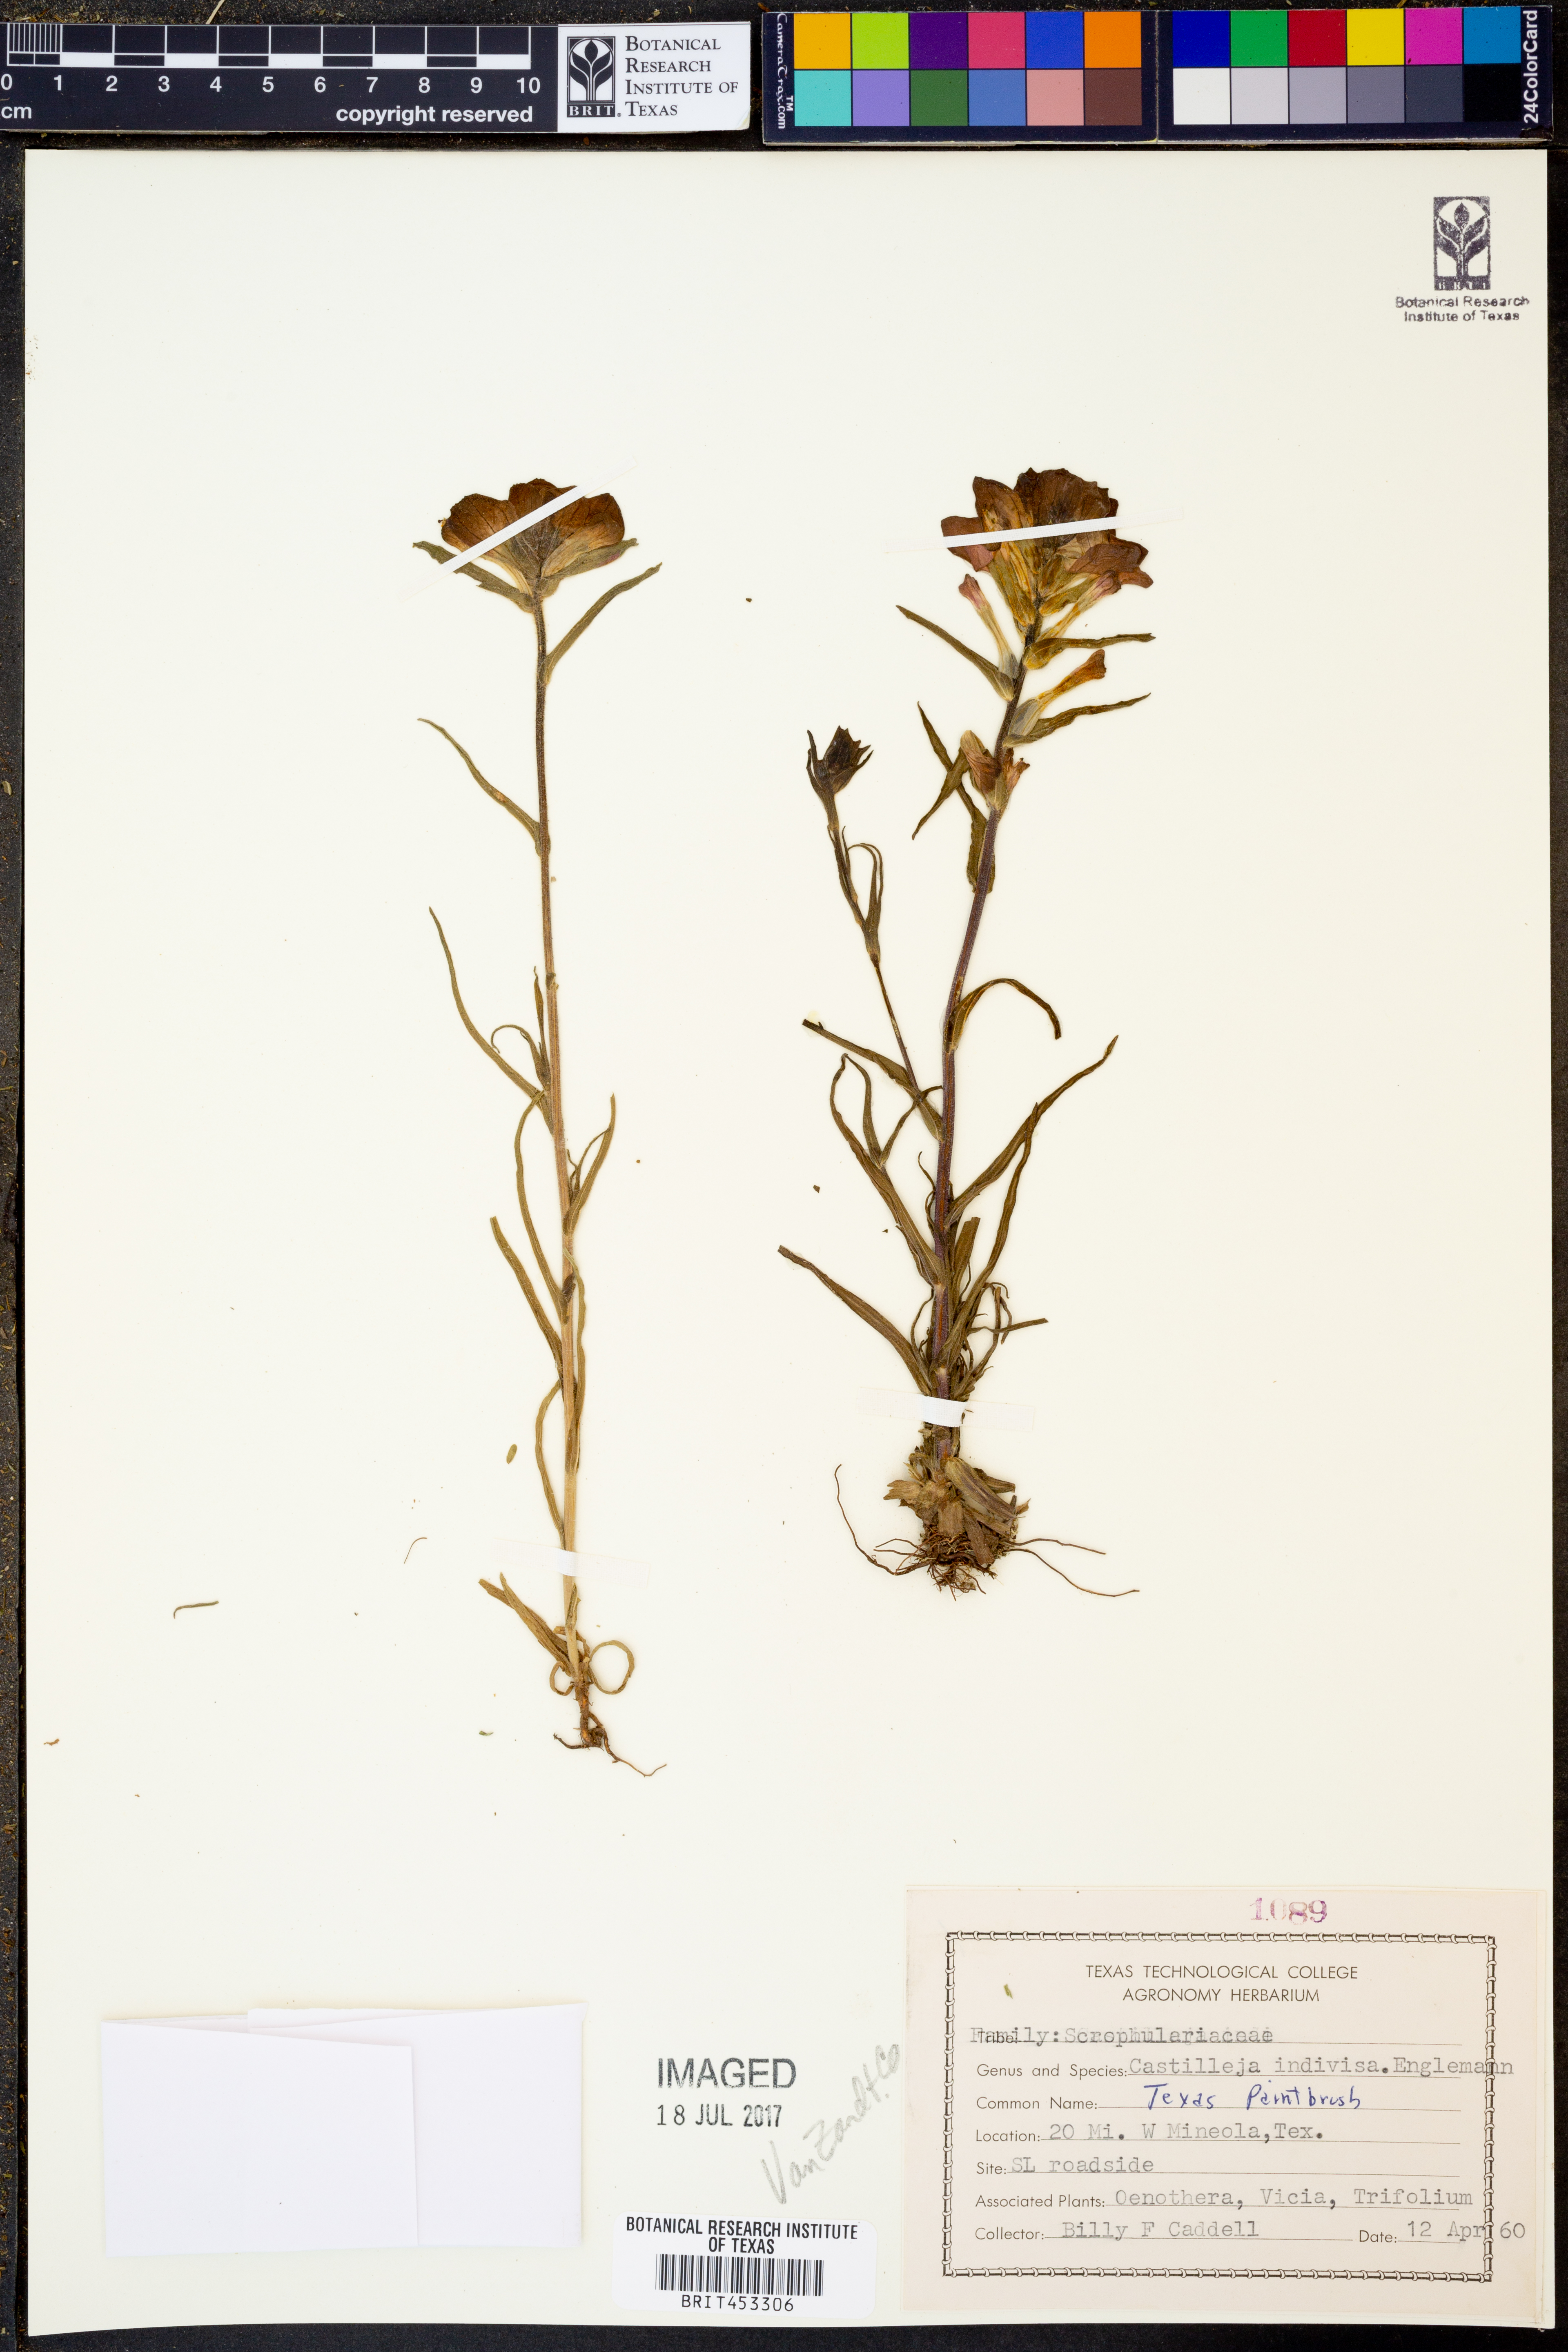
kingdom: Plantae
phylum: Tracheophyta
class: Magnoliopsida
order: Lamiales
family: Orobanchaceae
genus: Castilleja
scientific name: Castilleja indivisa
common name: Texas paintbrush
